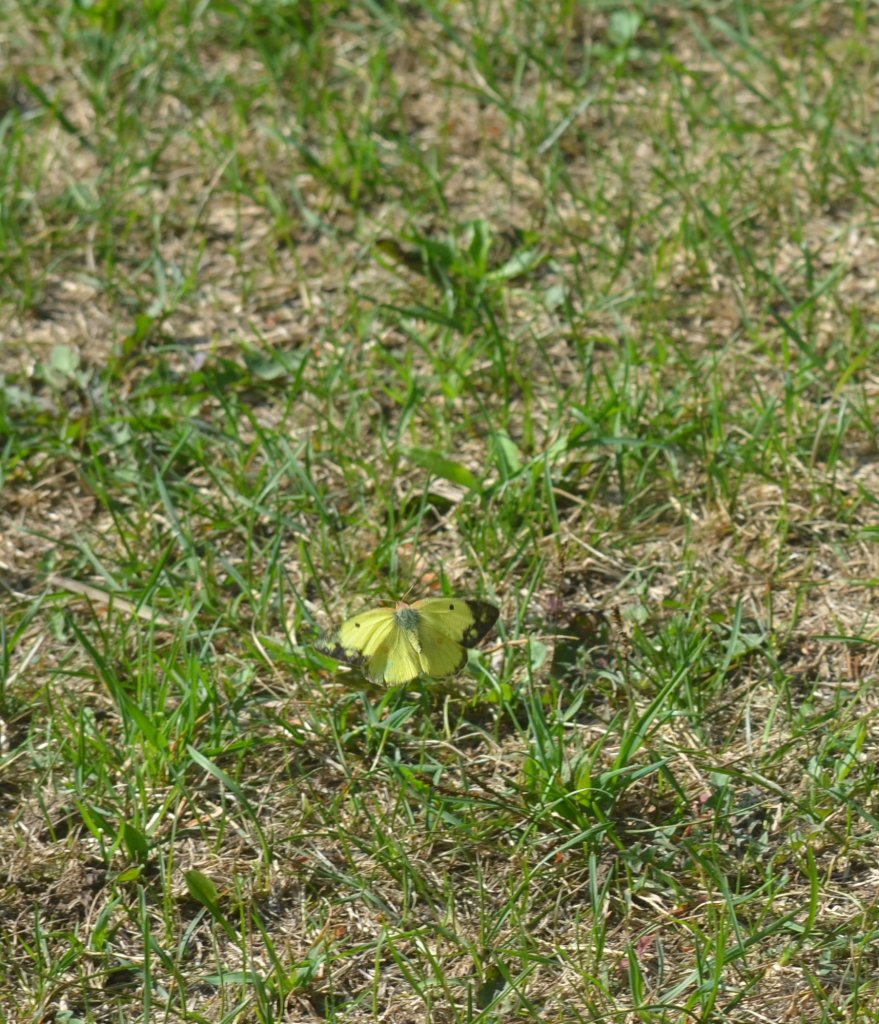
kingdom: Animalia
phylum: Arthropoda
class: Insecta
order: Lepidoptera
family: Pieridae
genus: Colias
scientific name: Colias philodice
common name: Clouded Sulphur
